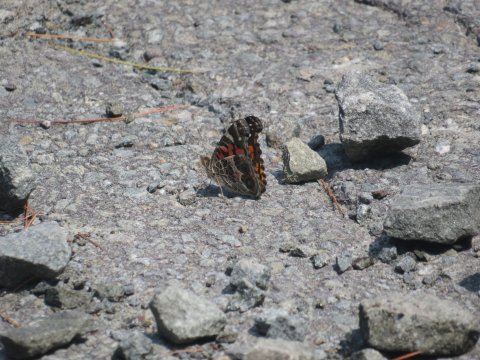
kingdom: Animalia
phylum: Arthropoda
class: Insecta
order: Lepidoptera
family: Nymphalidae
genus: Vanessa
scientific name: Vanessa virginiensis
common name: American Lady
